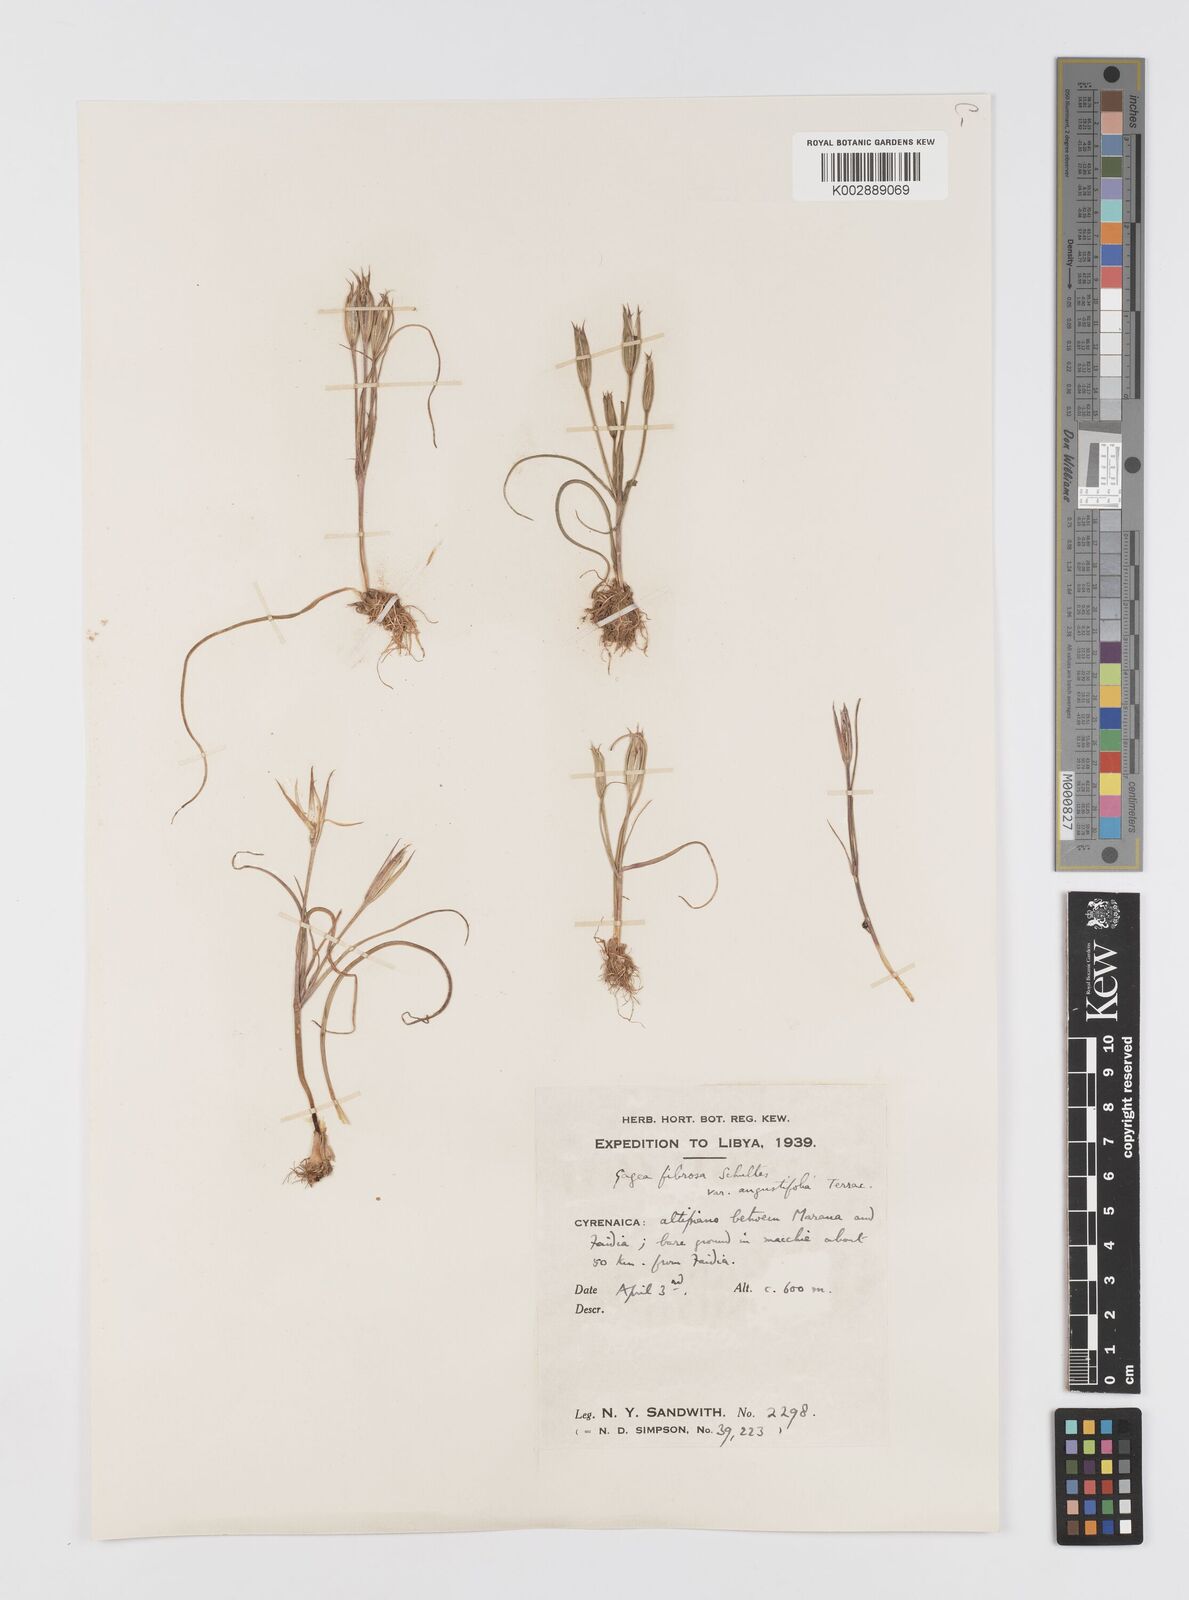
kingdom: Plantae
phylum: Tracheophyta
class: Liliopsida
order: Liliales
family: Liliaceae
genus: Gagea
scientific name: Gagea fibrosa
